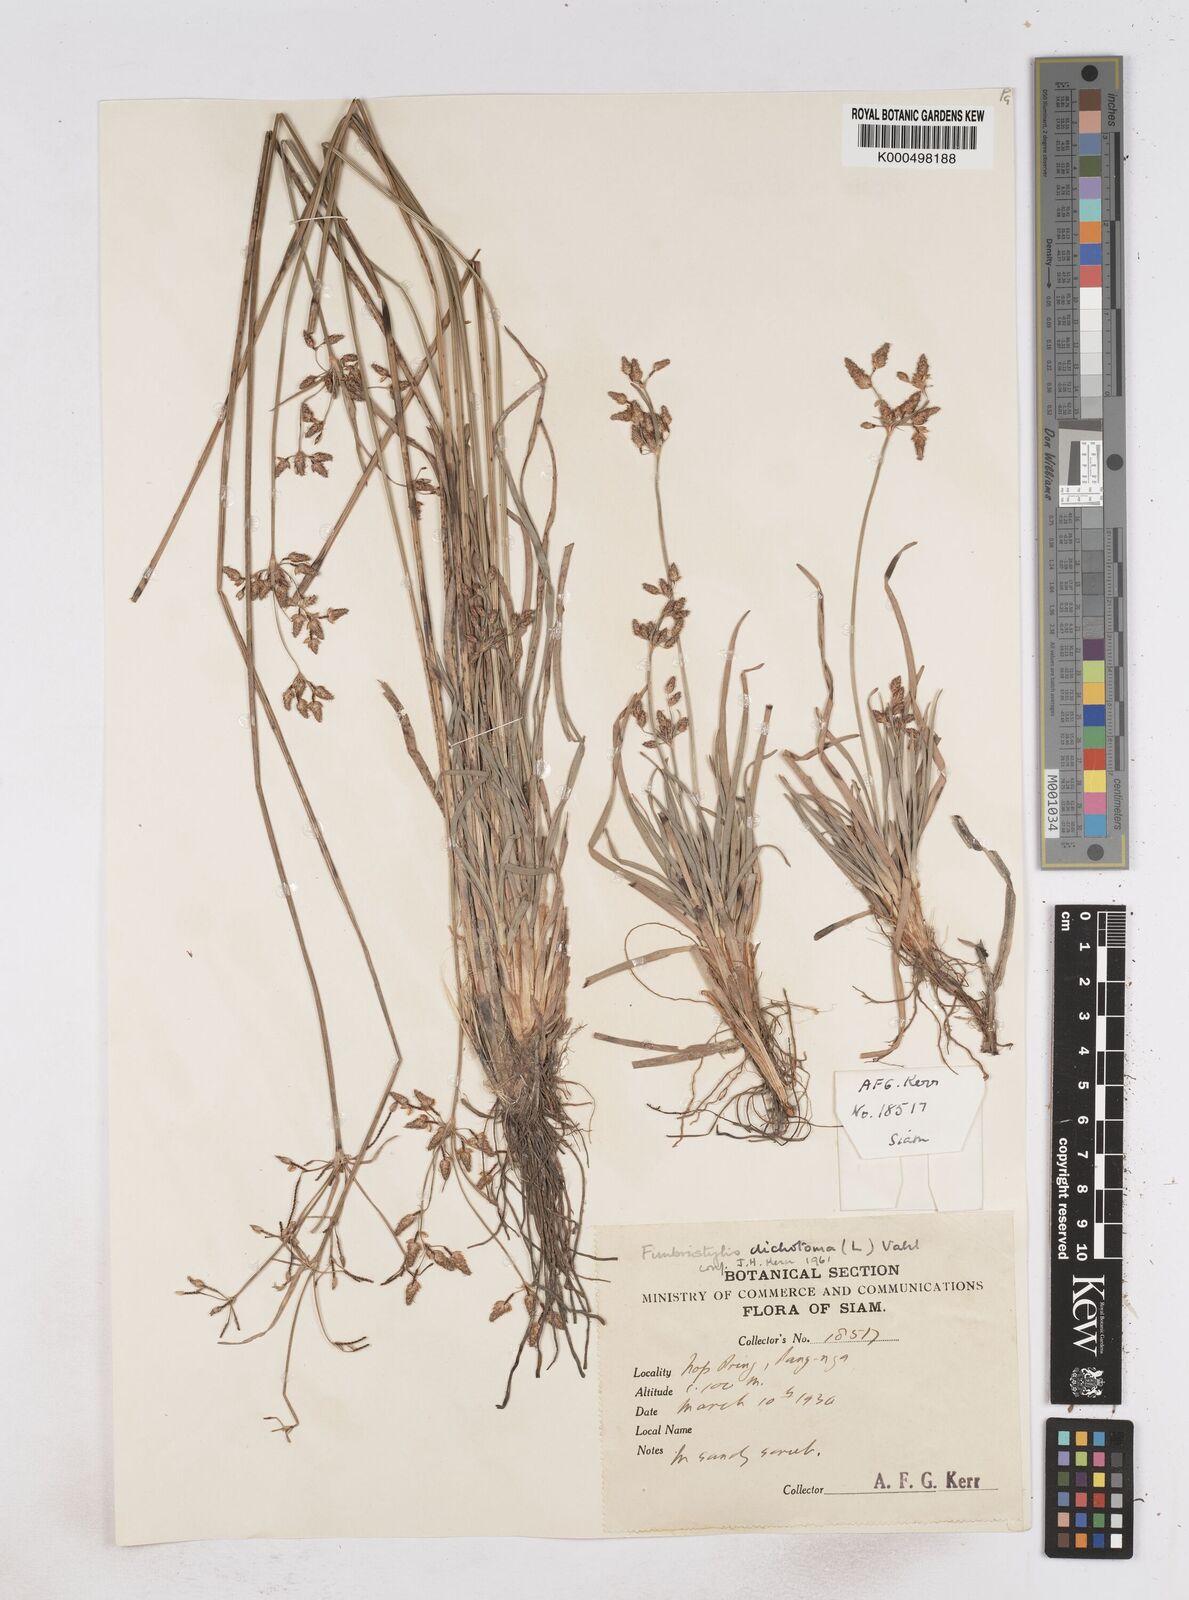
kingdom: Plantae
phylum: Tracheophyta
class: Liliopsida
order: Poales
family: Cyperaceae
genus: Fimbristylis
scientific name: Fimbristylis dichotoma
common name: Forked fimbry
